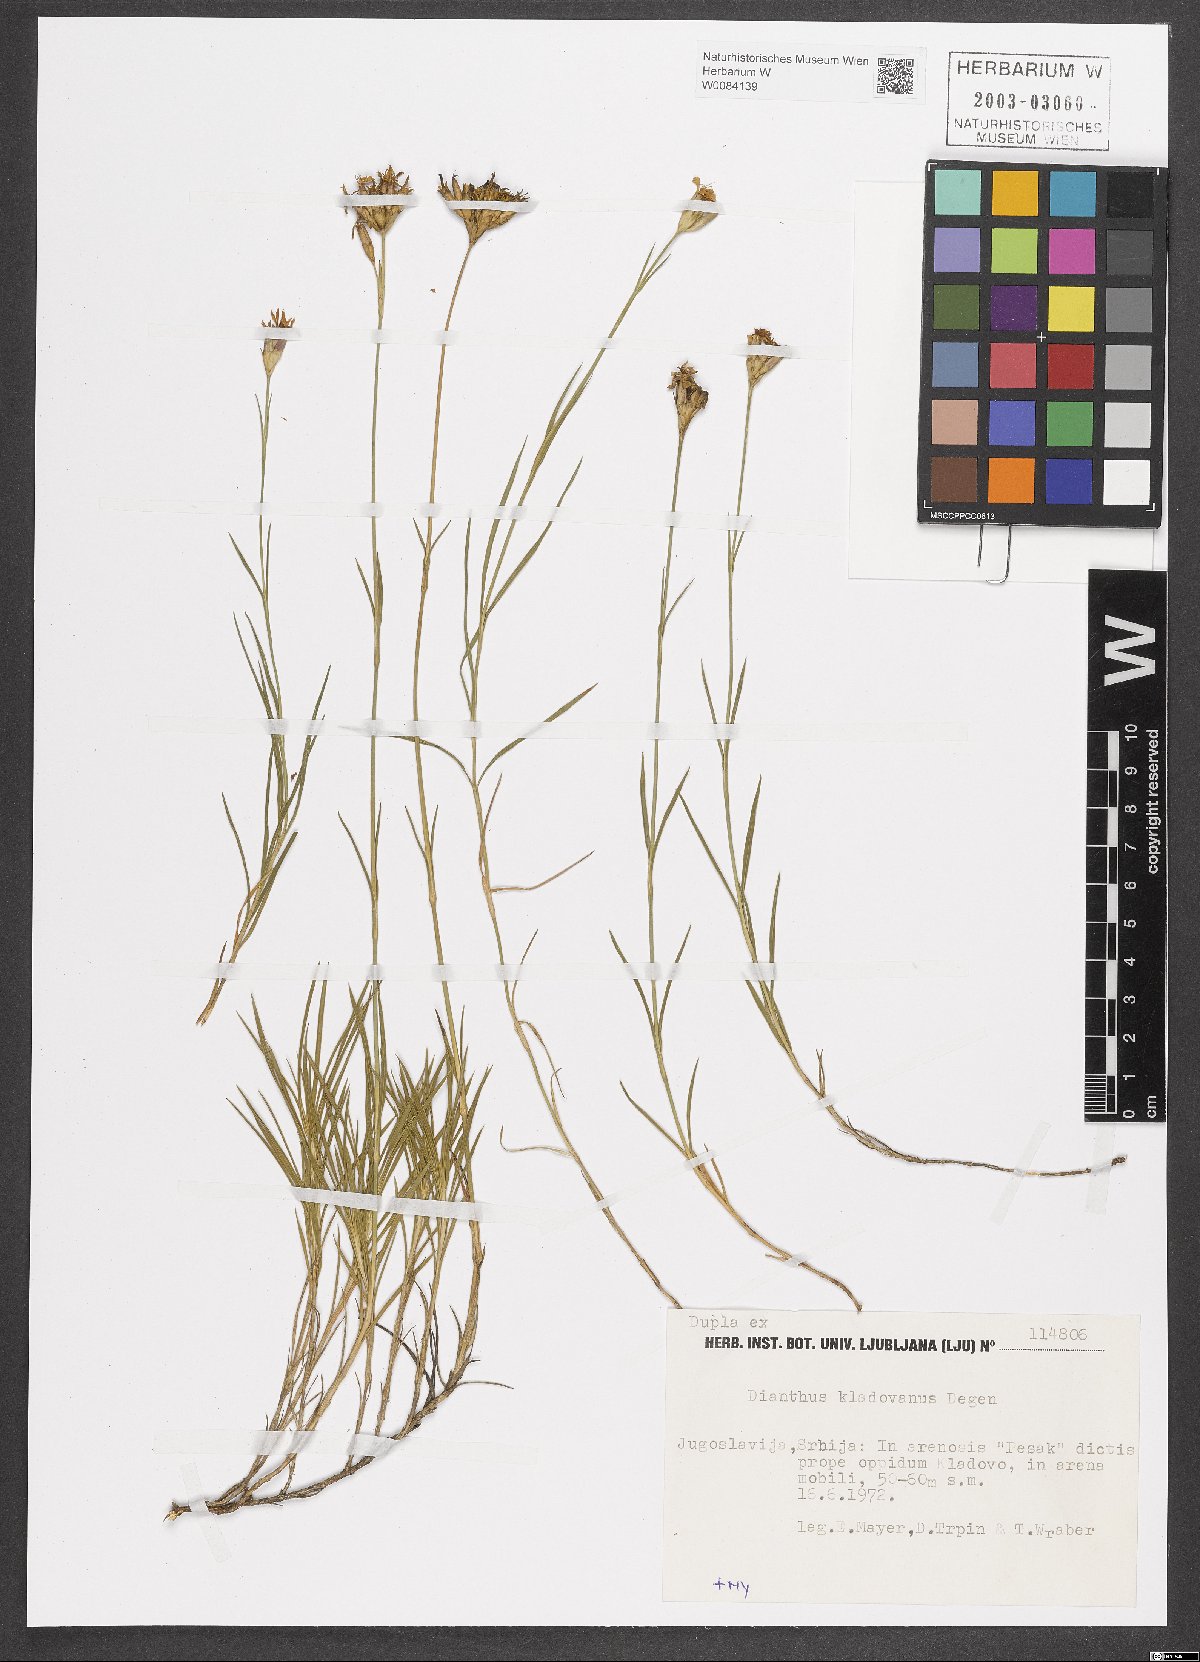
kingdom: Plantae
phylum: Tracheophyta
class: Magnoliopsida
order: Caryophyllales
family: Caryophyllaceae
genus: Dianthus
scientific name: Dianthus giganteiformis
